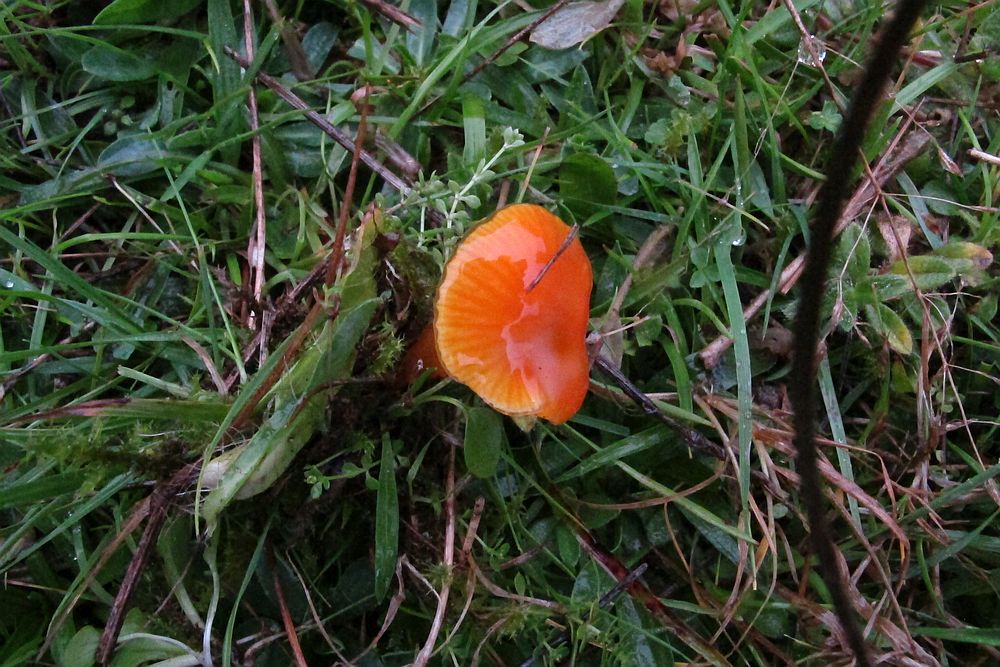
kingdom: Fungi
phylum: Basidiomycota
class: Agaricomycetes
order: Agaricales
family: Hygrophoraceae
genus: Hygrocybe
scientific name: Hygrocybe glutinipes
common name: slimstokket vokshat
